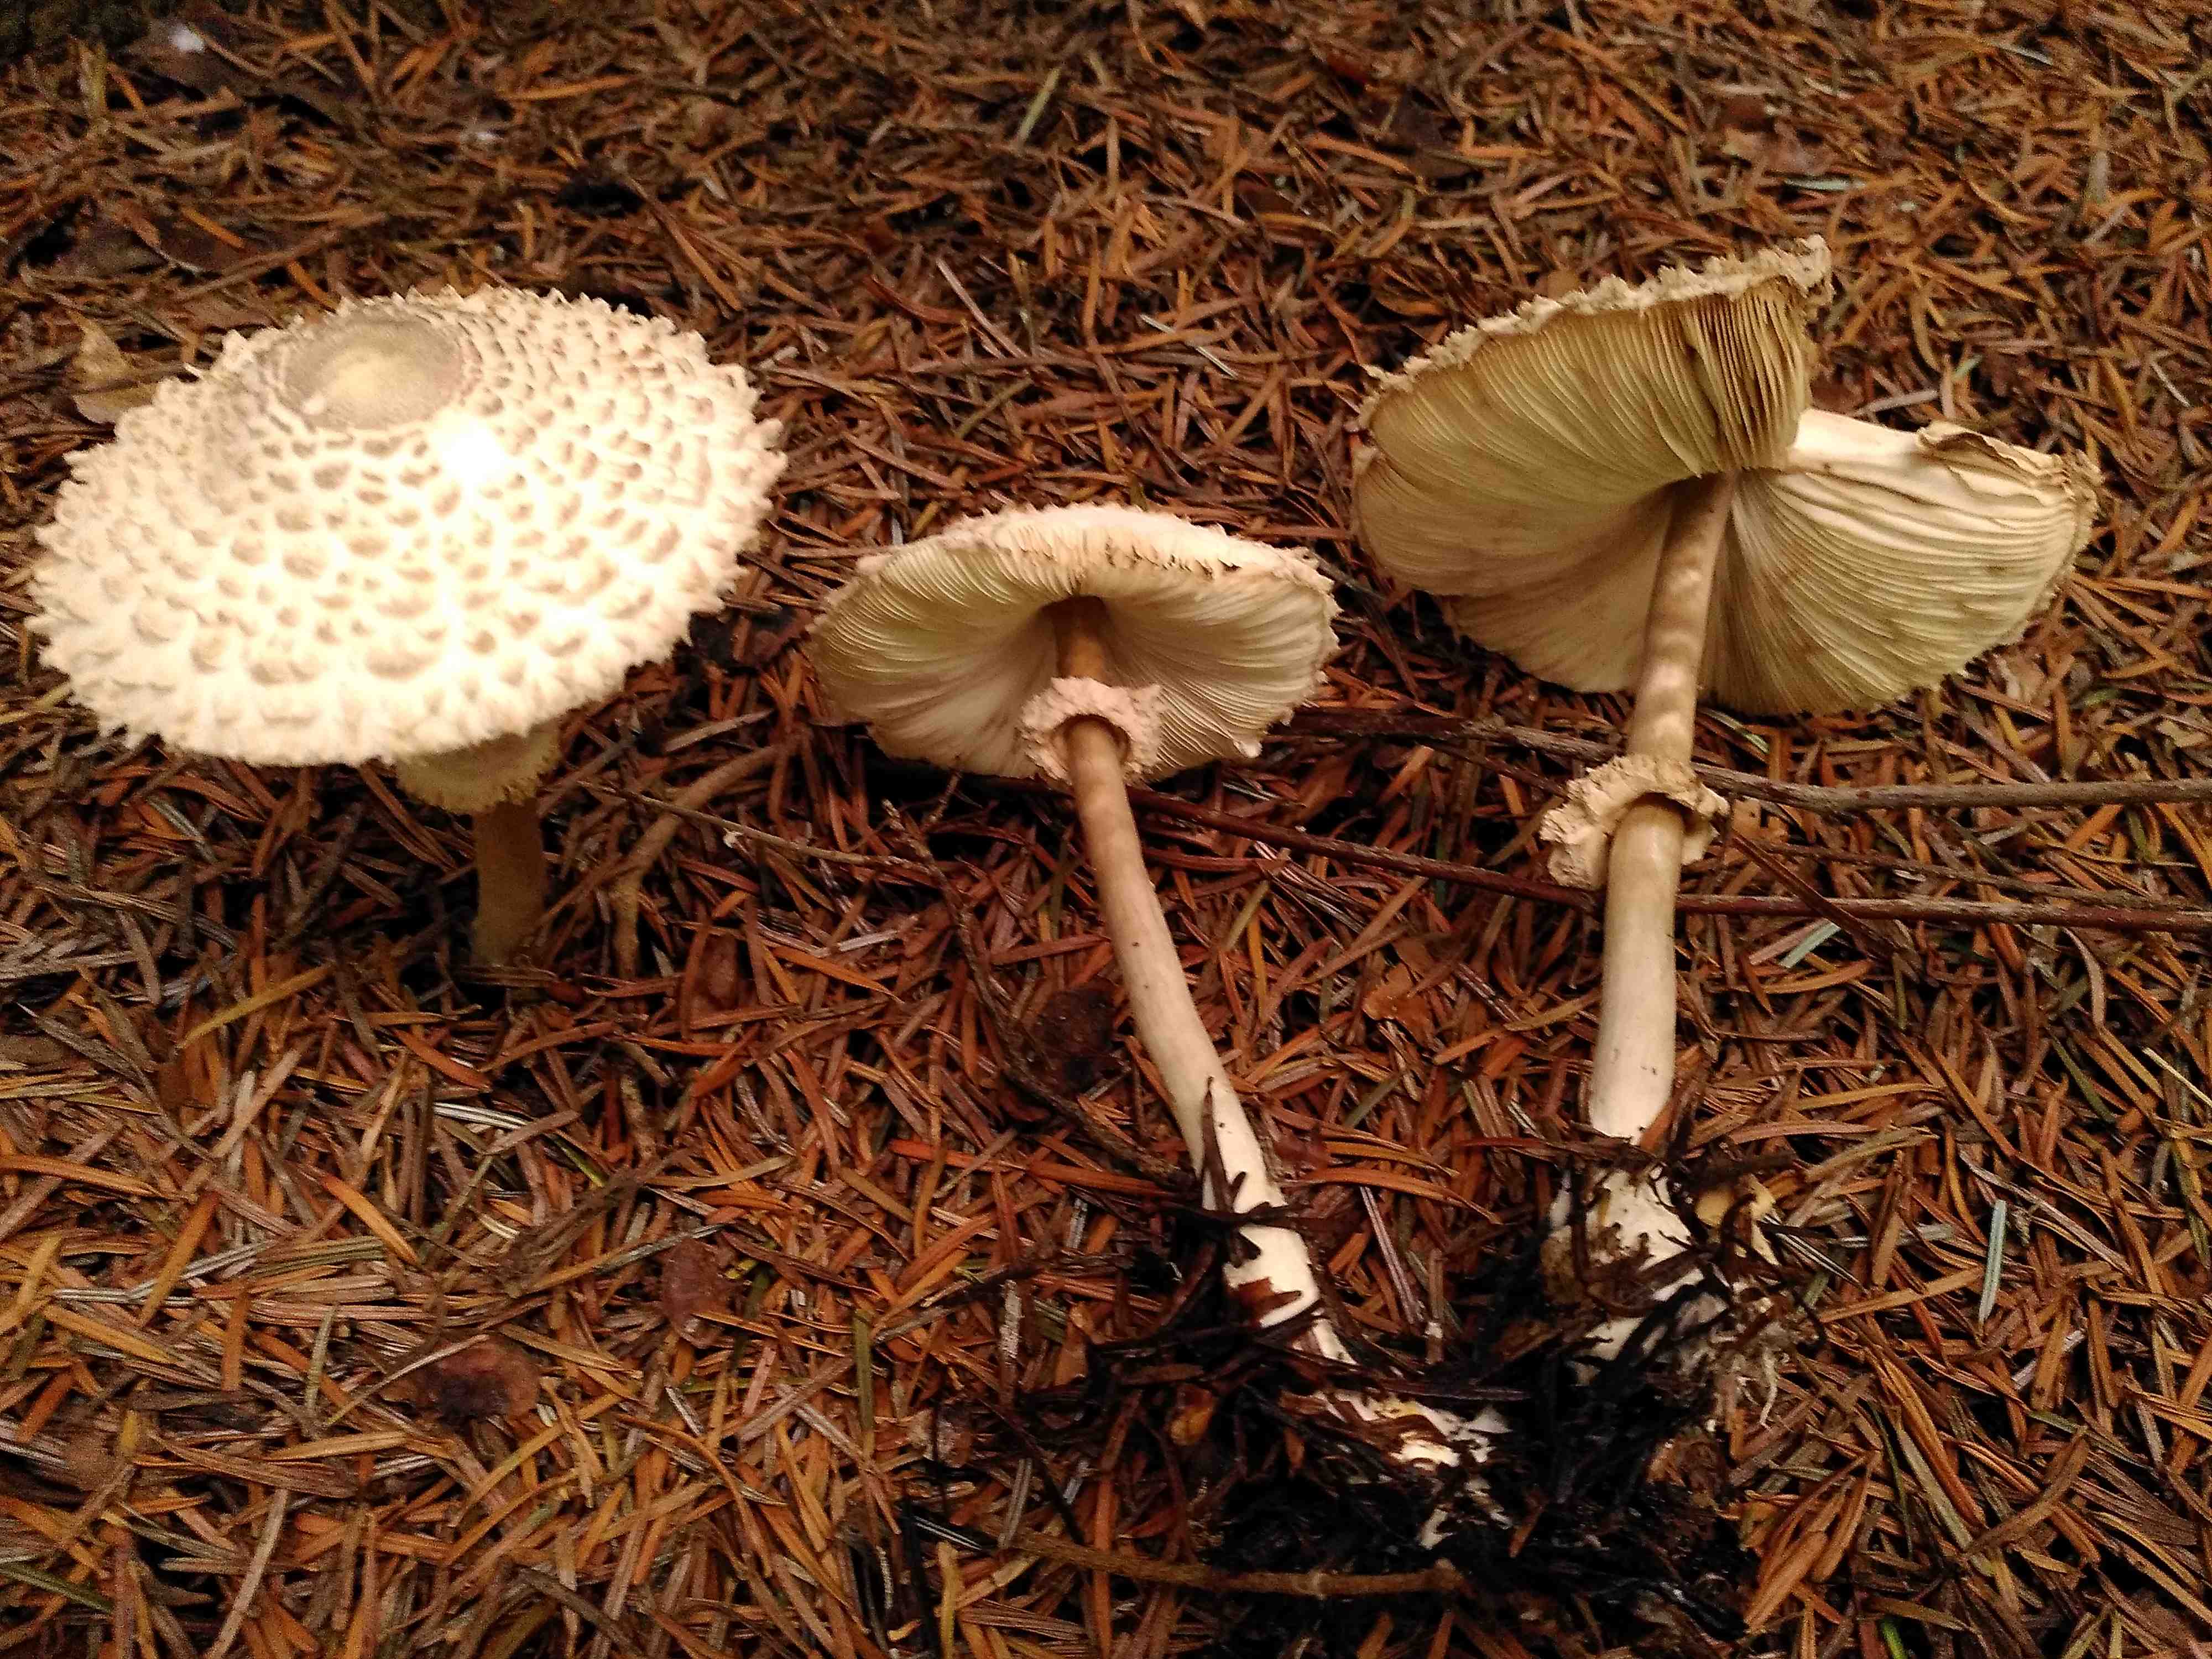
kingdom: Fungi
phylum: Basidiomycota
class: Agaricomycetes
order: Agaricales
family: Agaricaceae
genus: Leucoagaricus
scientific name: Leucoagaricus nympharum
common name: gran-silkehat
